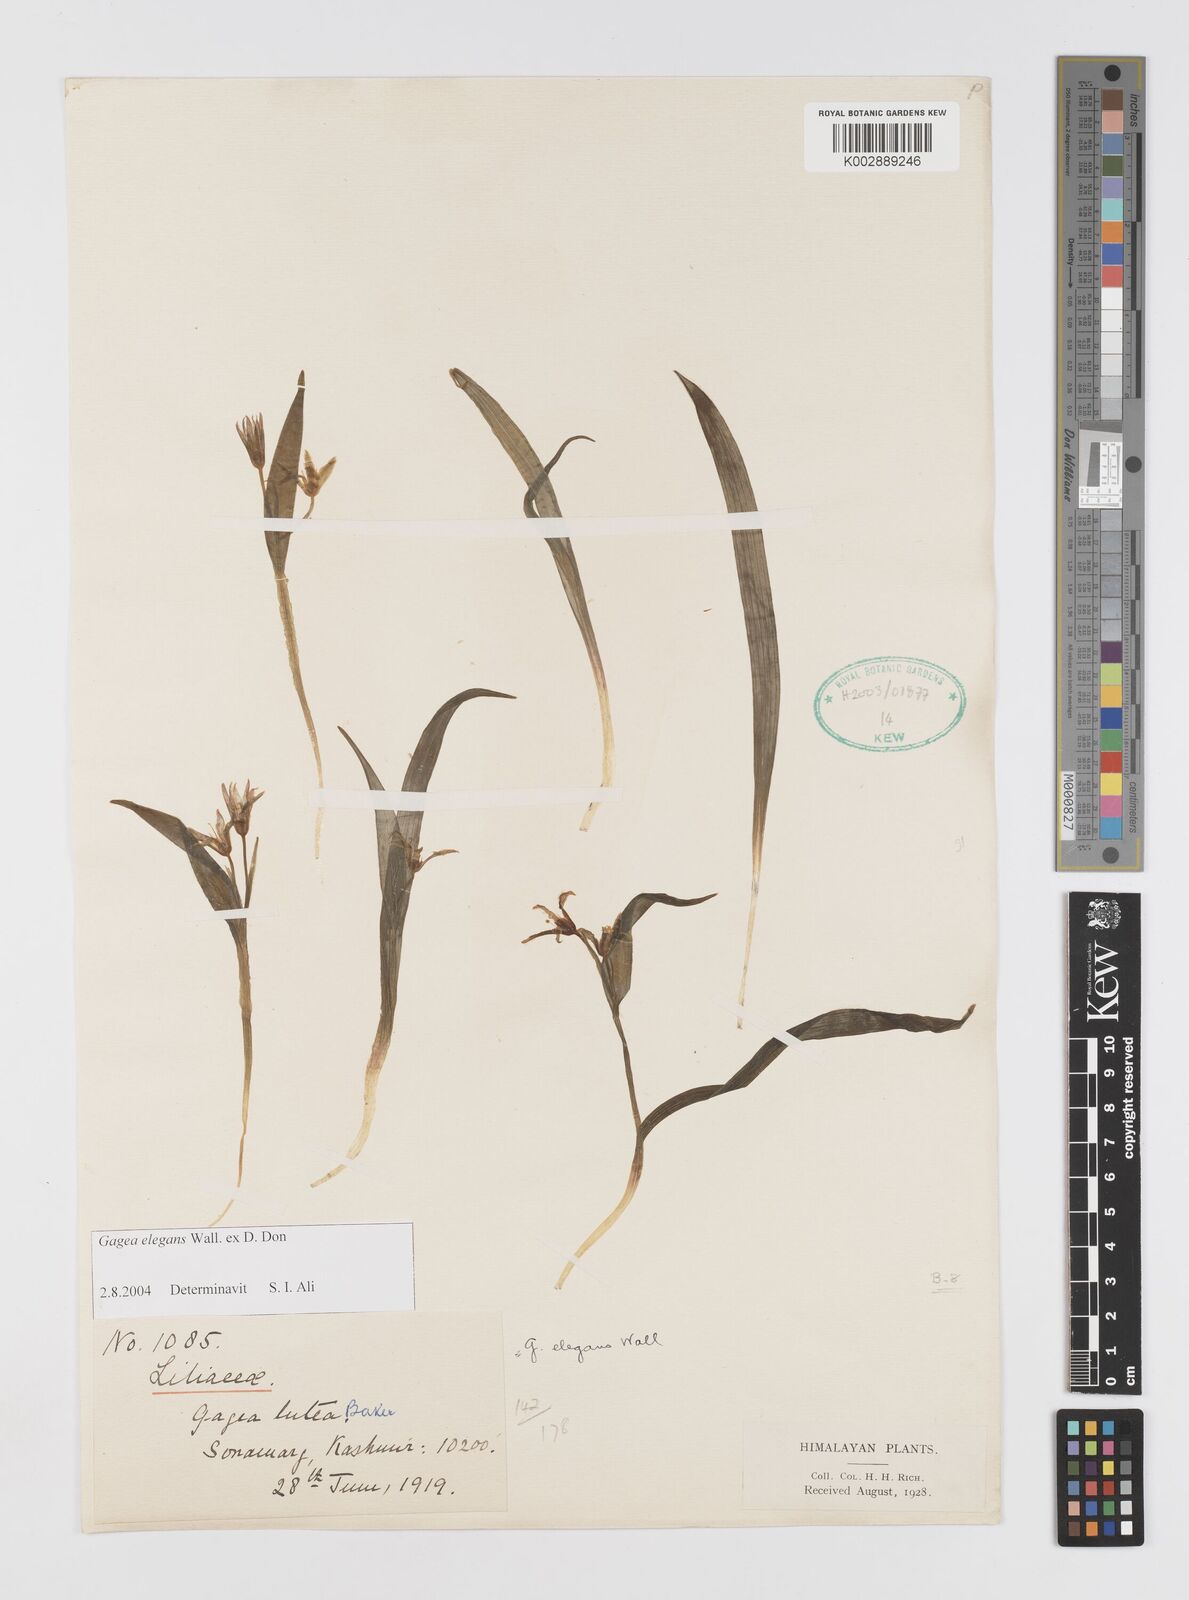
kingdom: Plantae
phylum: Tracheophyta
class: Liliopsida
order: Liliales
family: Liliaceae
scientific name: Liliaceae
